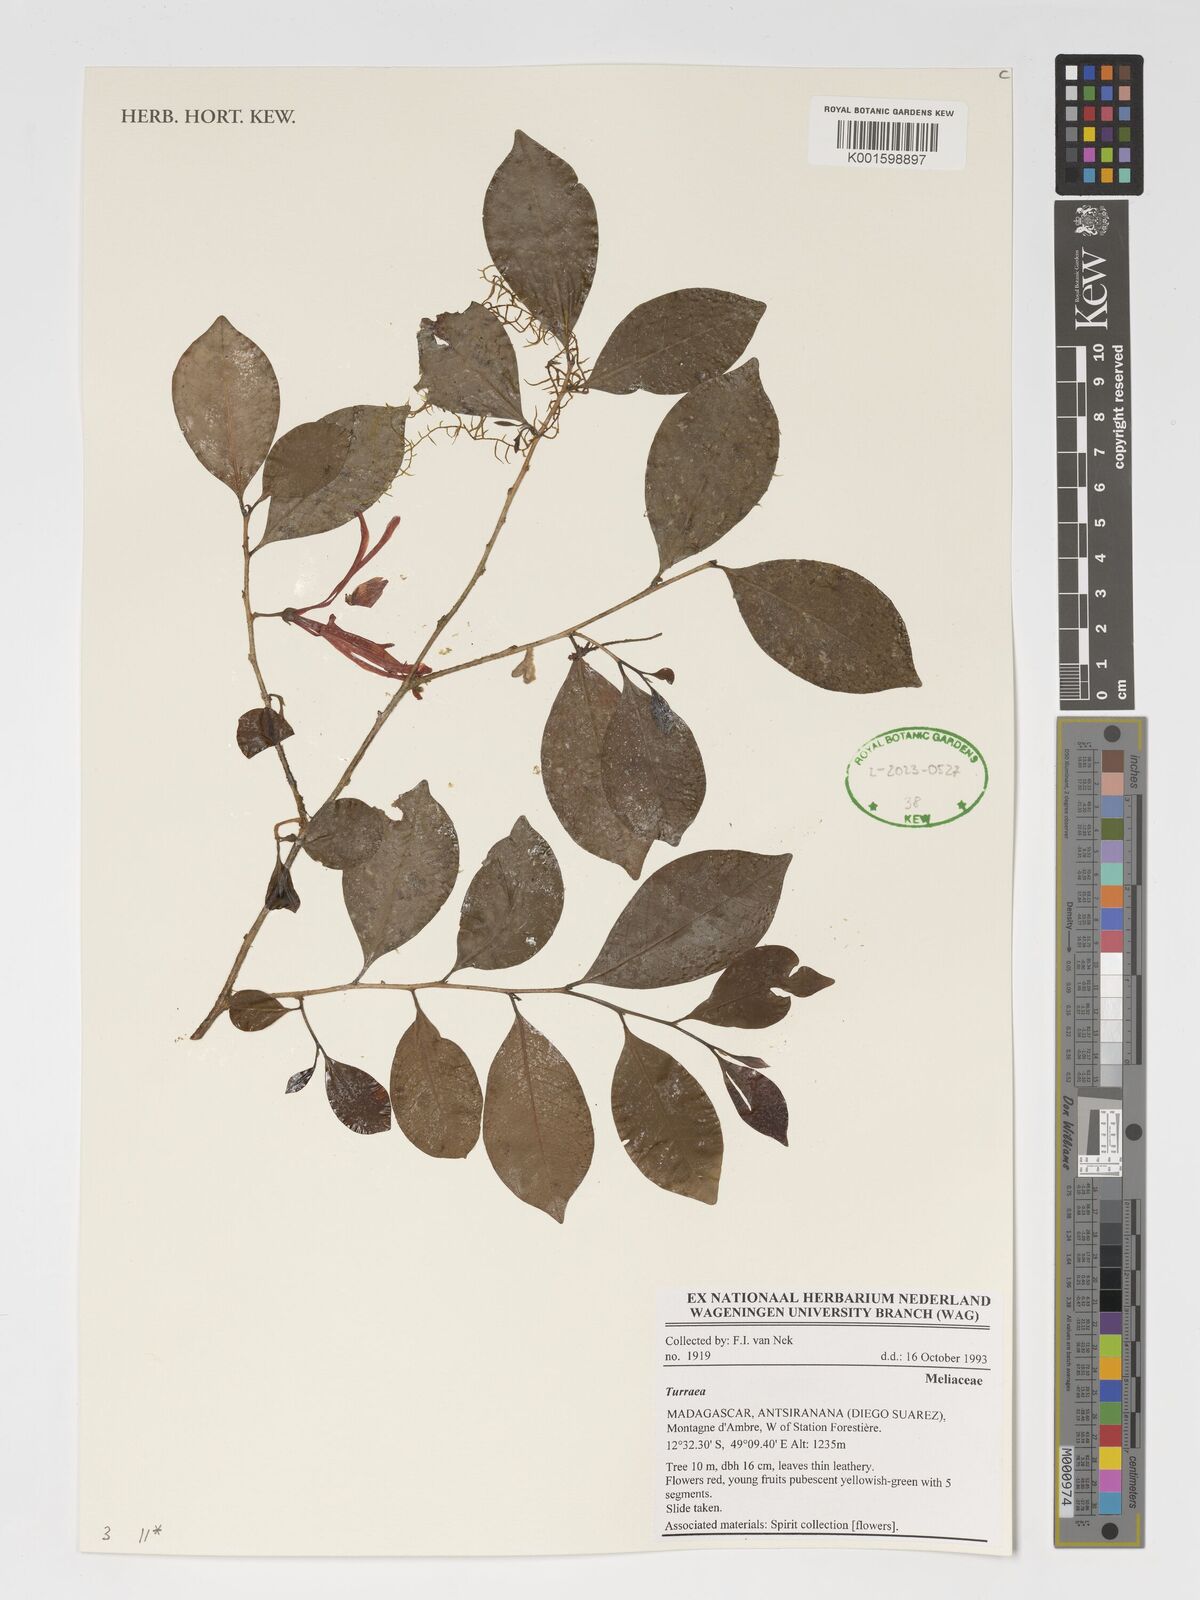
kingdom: Plantae
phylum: Tracheophyta
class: Magnoliopsida
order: Sapindales
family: Meliaceae
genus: Turraea
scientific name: Turraea
